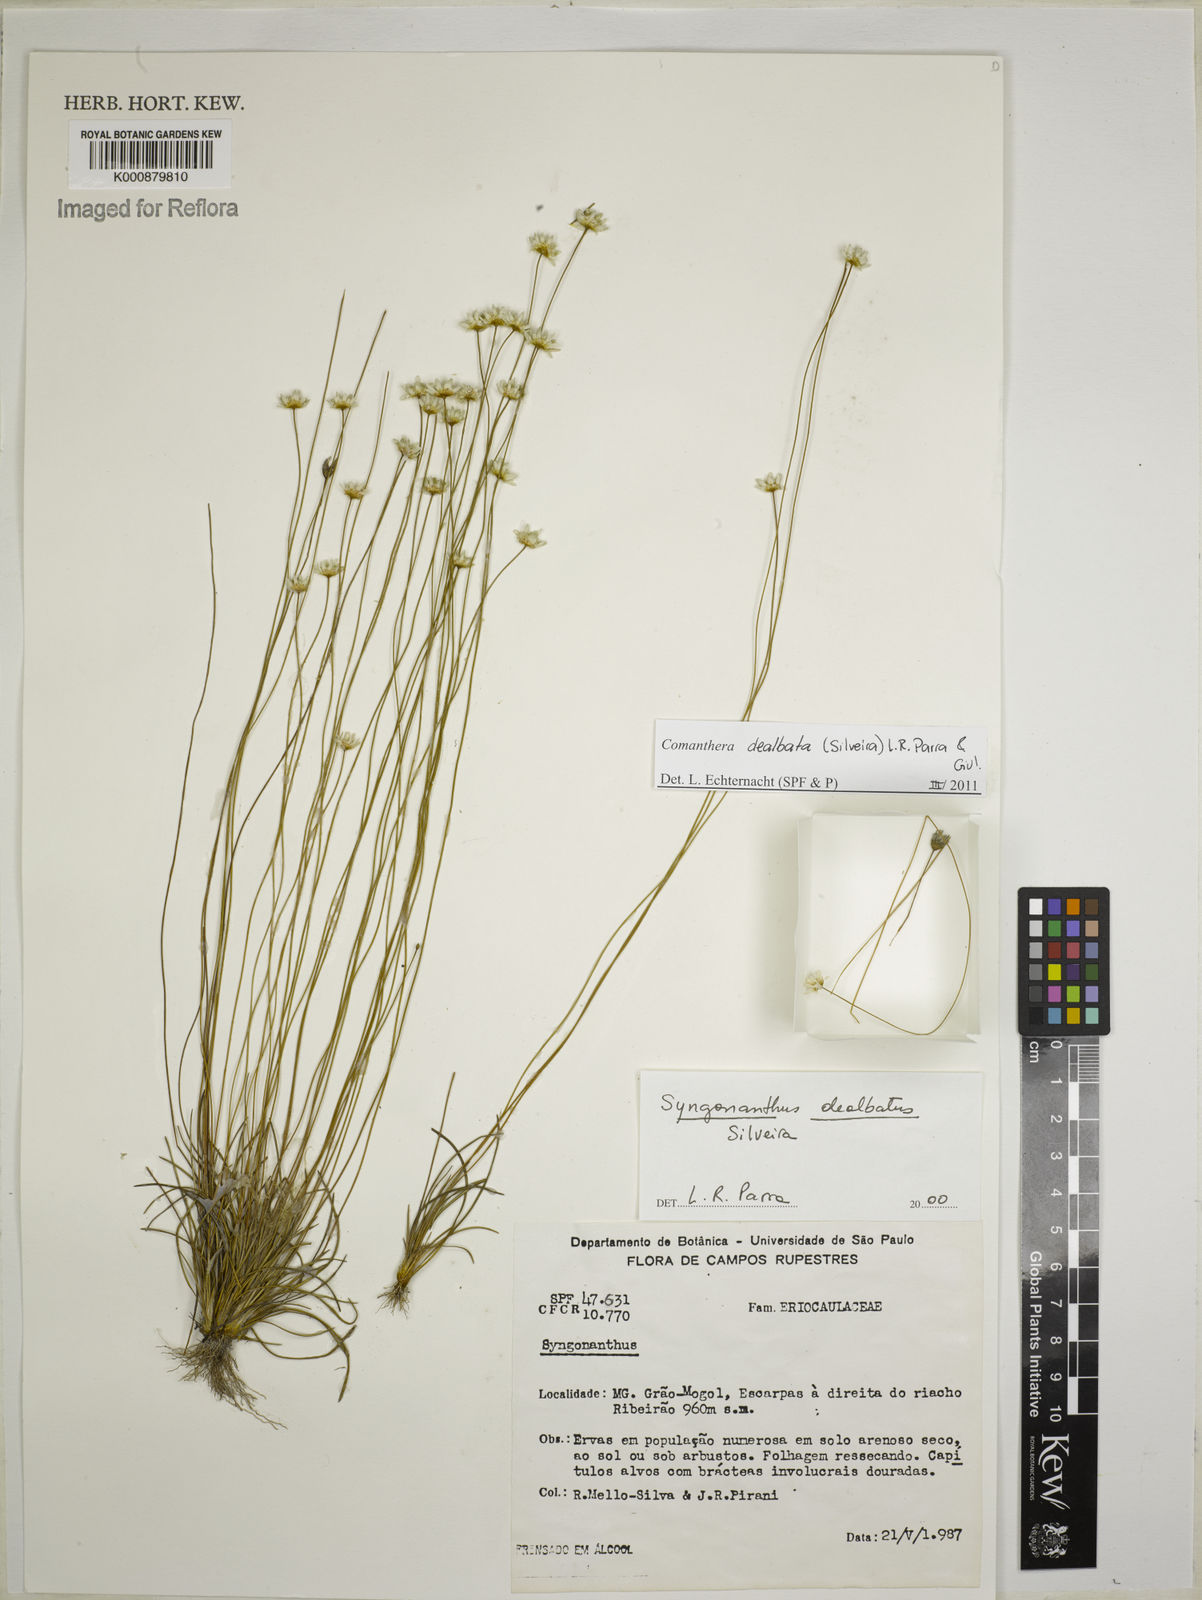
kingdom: Plantae
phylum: Tracheophyta
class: Liliopsida
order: Poales
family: Eriocaulaceae
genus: Comanthera
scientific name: Comanthera dealbata
